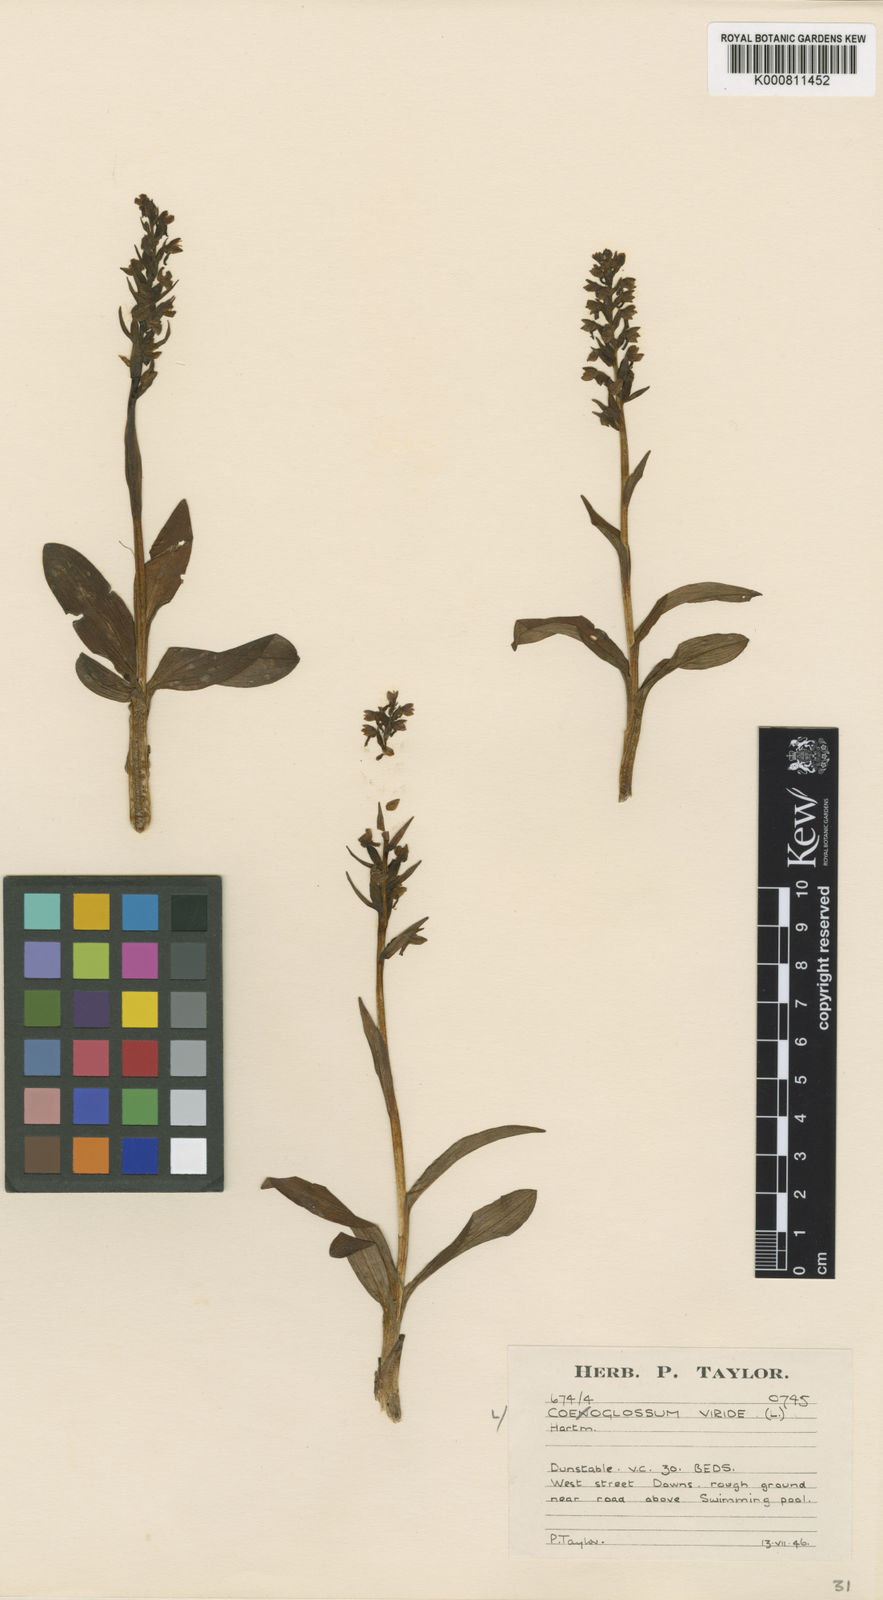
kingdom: Plantae
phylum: Tracheophyta
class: Liliopsida
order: Asparagales
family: Orchidaceae
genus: Dactylorhiza
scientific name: Dactylorhiza viridis
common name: Longbract frog orchid
